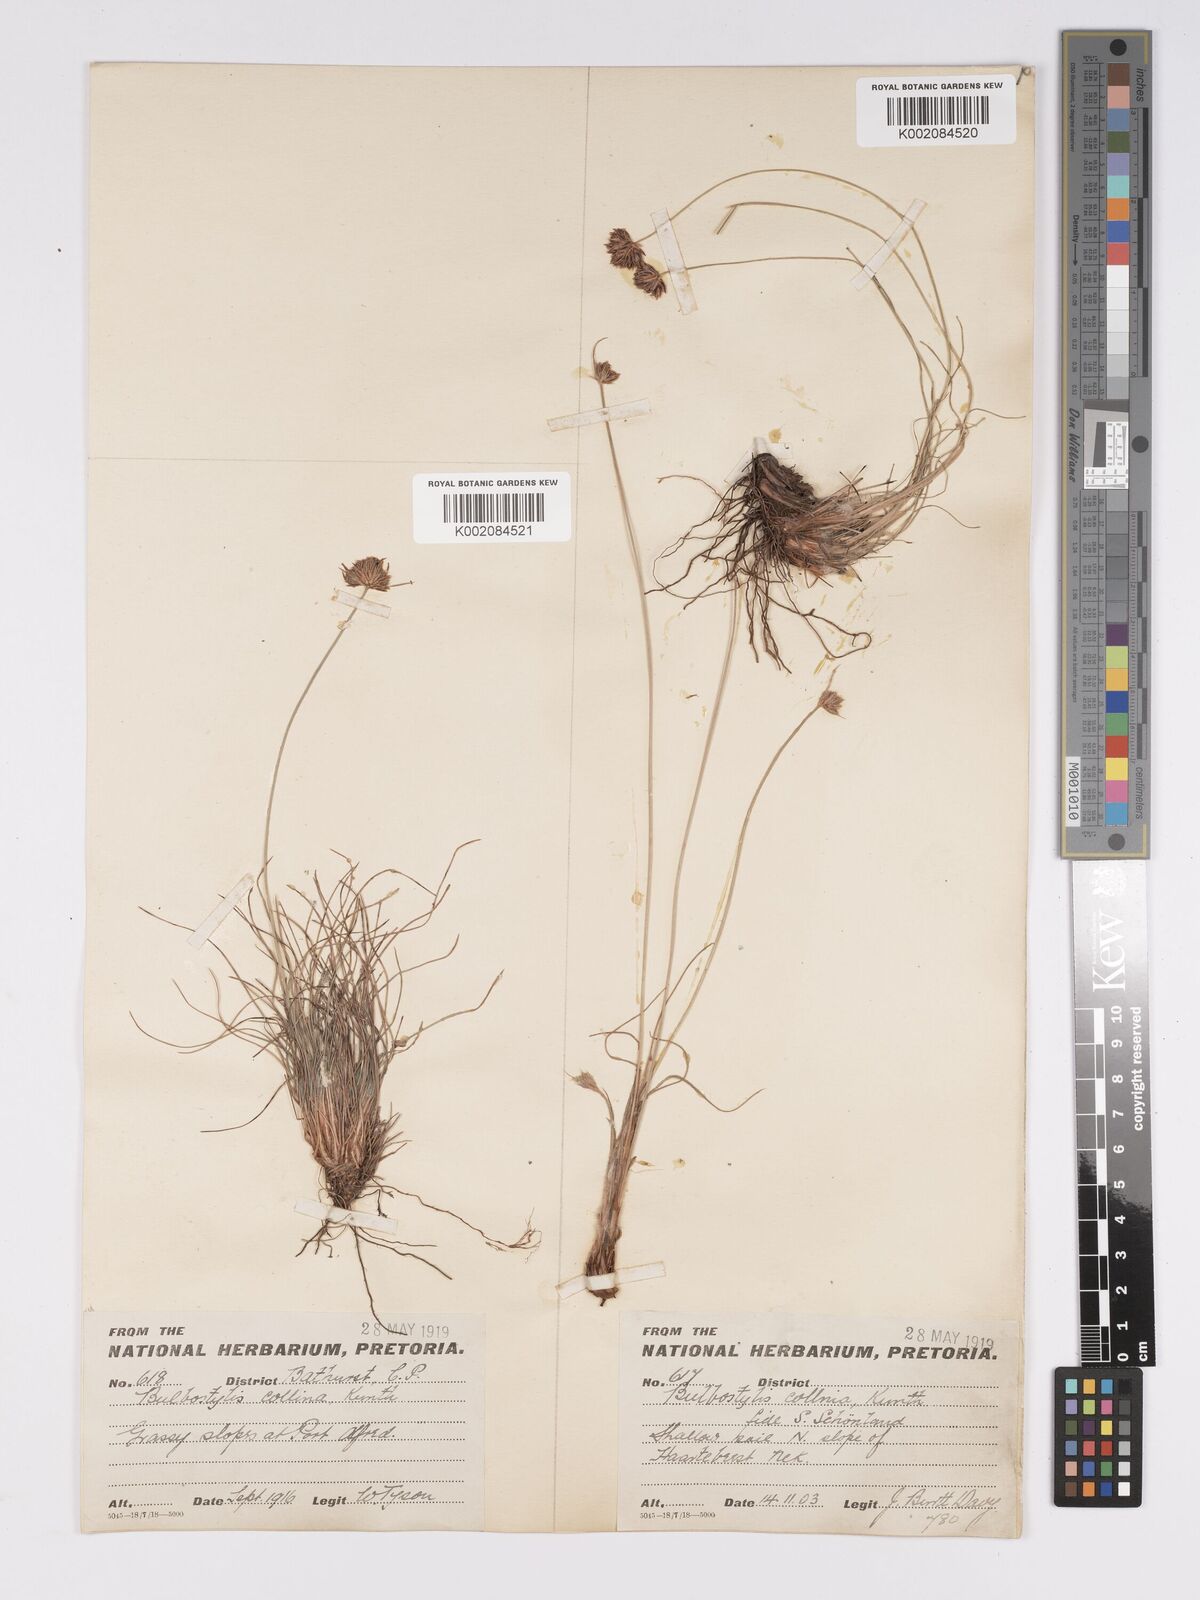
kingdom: Plantae
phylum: Tracheophyta
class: Liliopsida
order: Poales
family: Cyperaceae
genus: Bulbostylis
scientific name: Bulbostylis contexta
